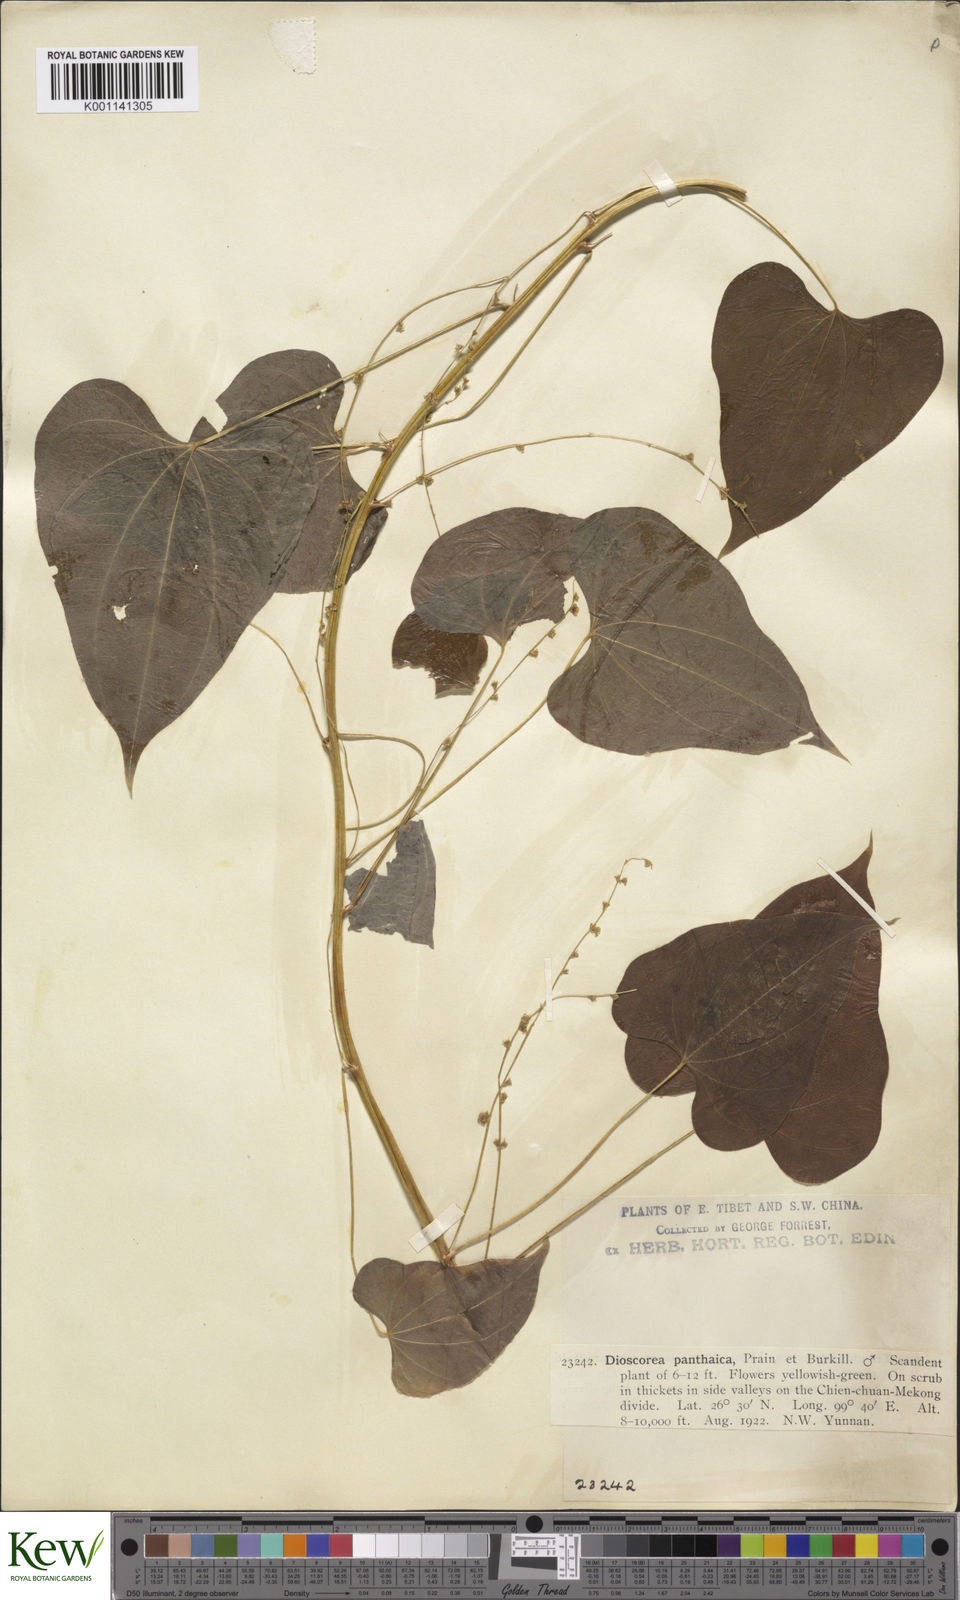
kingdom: Plantae
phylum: Tracheophyta
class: Liliopsida
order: Dioscoreales
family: Dioscoreaceae
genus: Dioscorea
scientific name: Dioscorea panthaica
